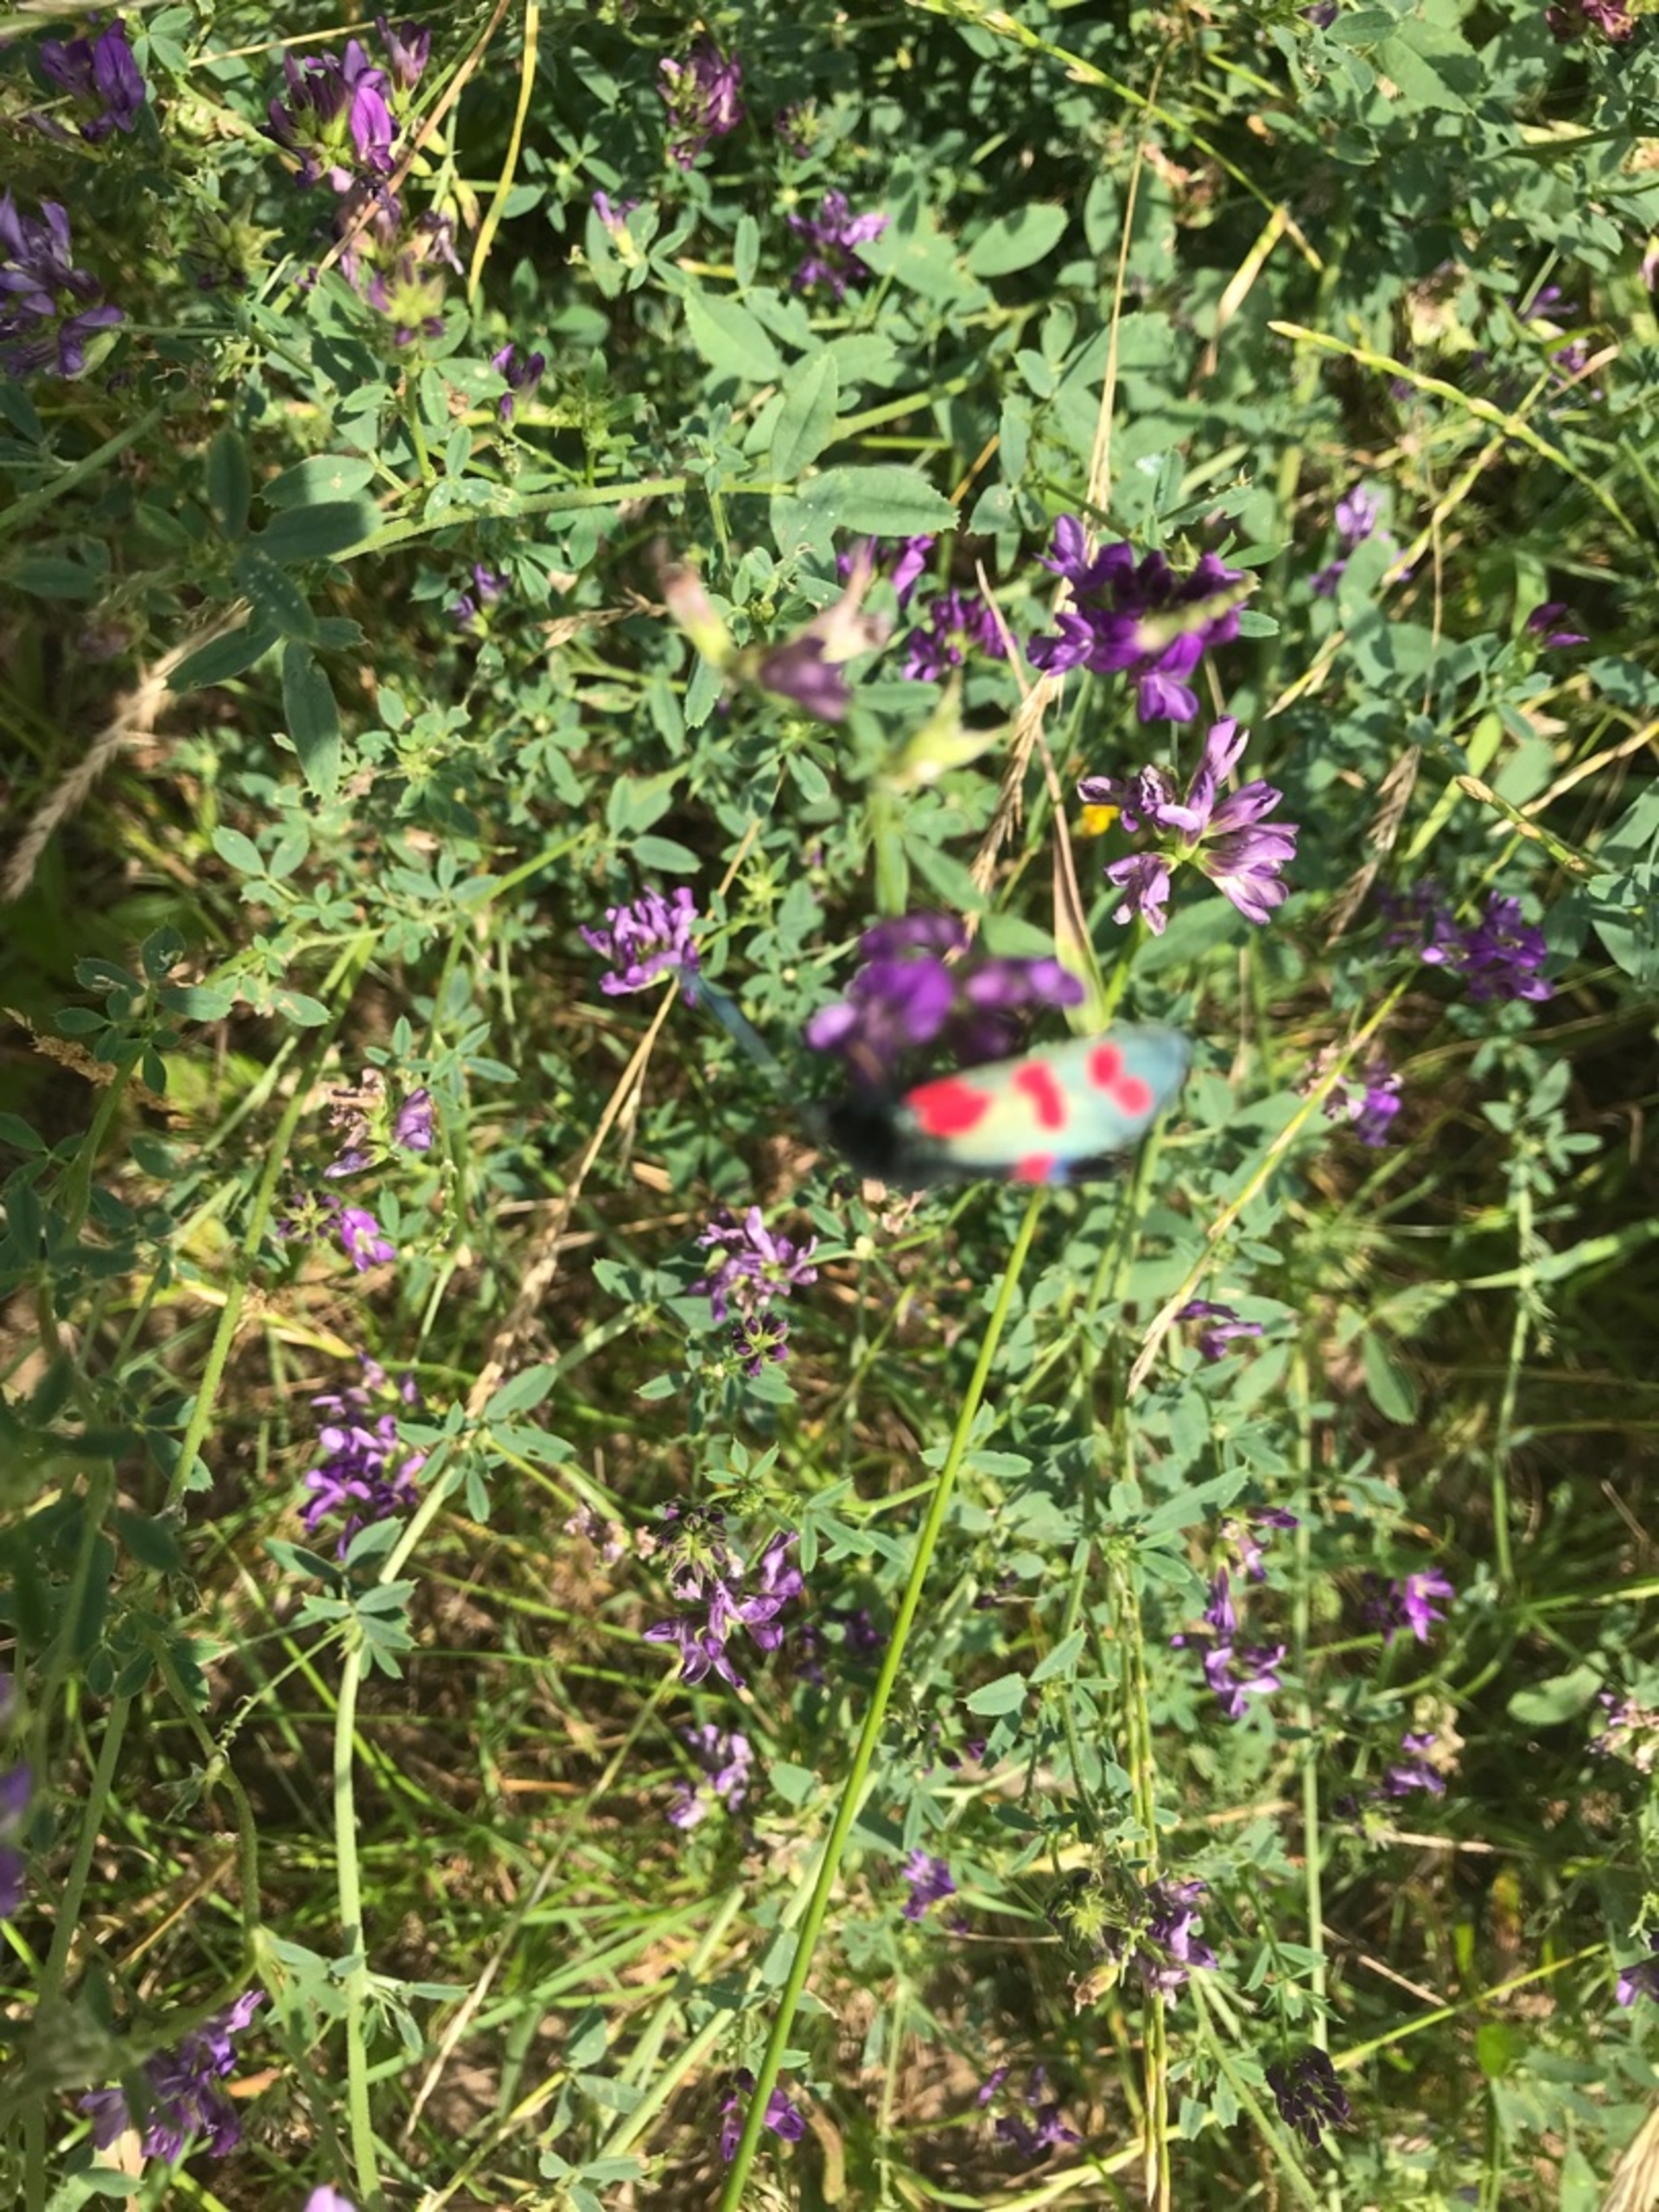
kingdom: Animalia
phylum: Arthropoda
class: Insecta
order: Lepidoptera
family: Zygaenidae
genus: Zygaena
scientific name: Zygaena filipendulae
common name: Seksplettet køllesværmer
